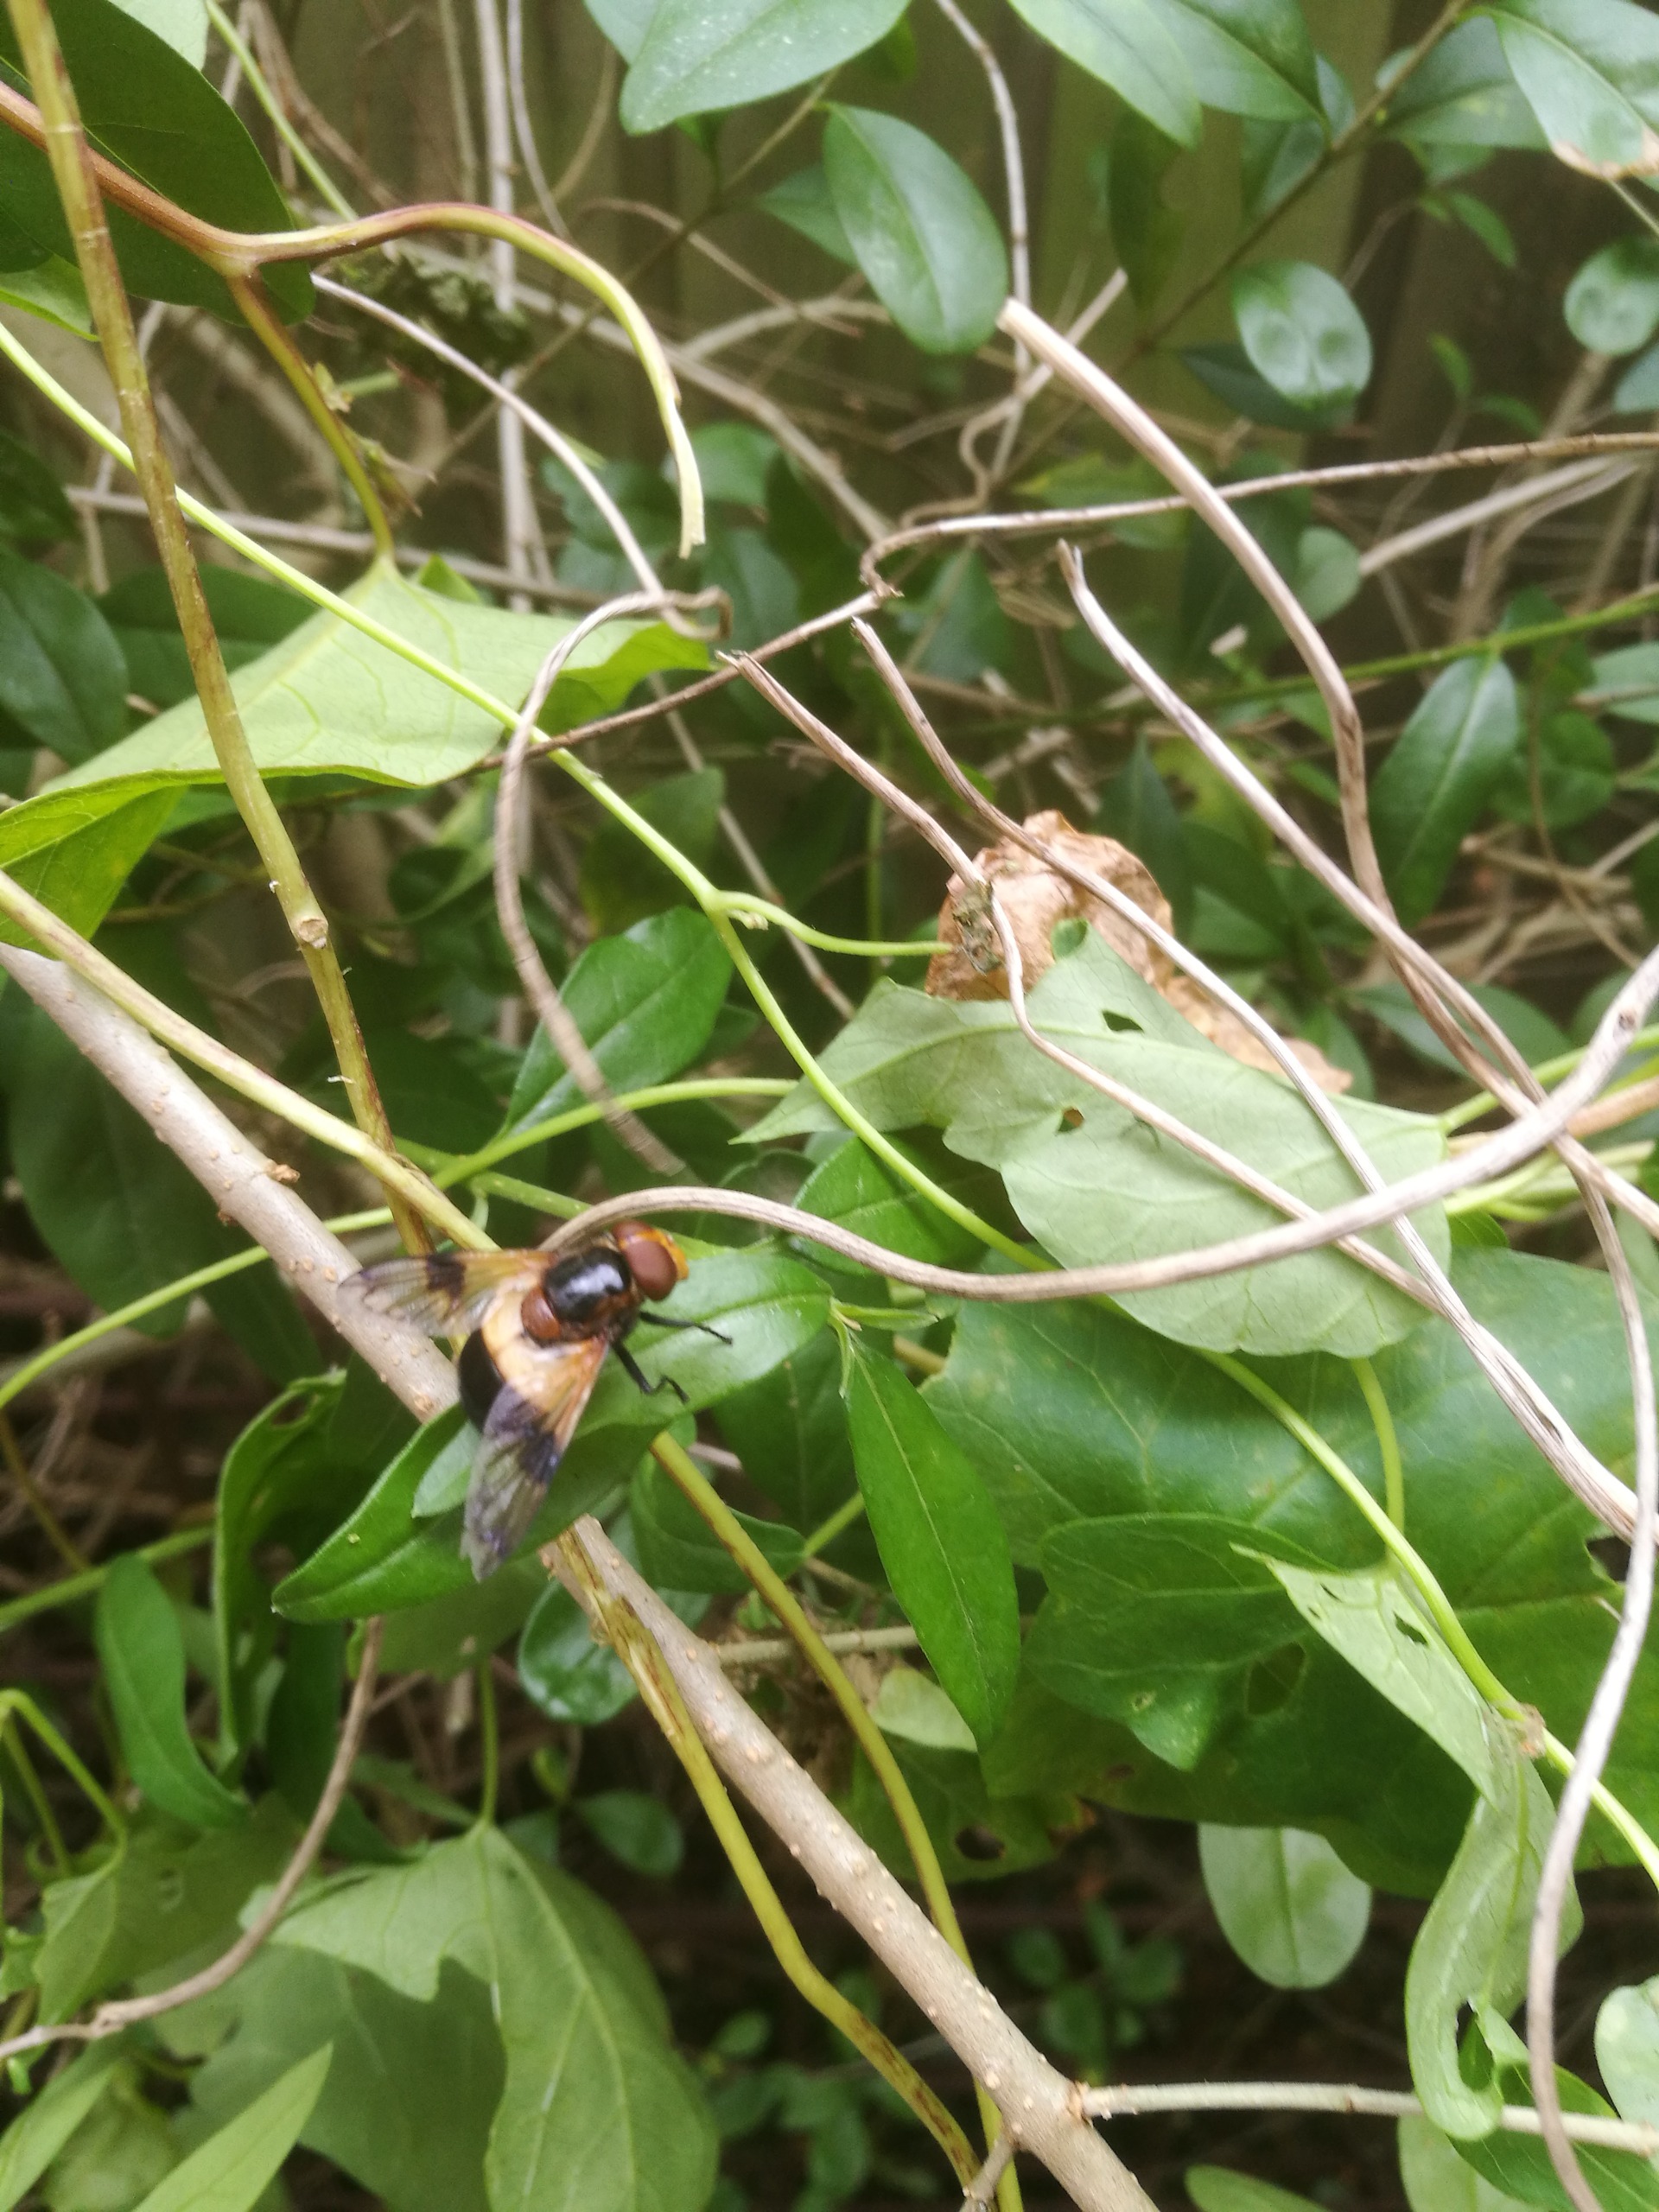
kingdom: Animalia
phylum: Arthropoda
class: Insecta
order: Diptera
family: Syrphidae
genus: Volucella
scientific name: Volucella pellucens
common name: Hvidbåndet humlesvirreflue
